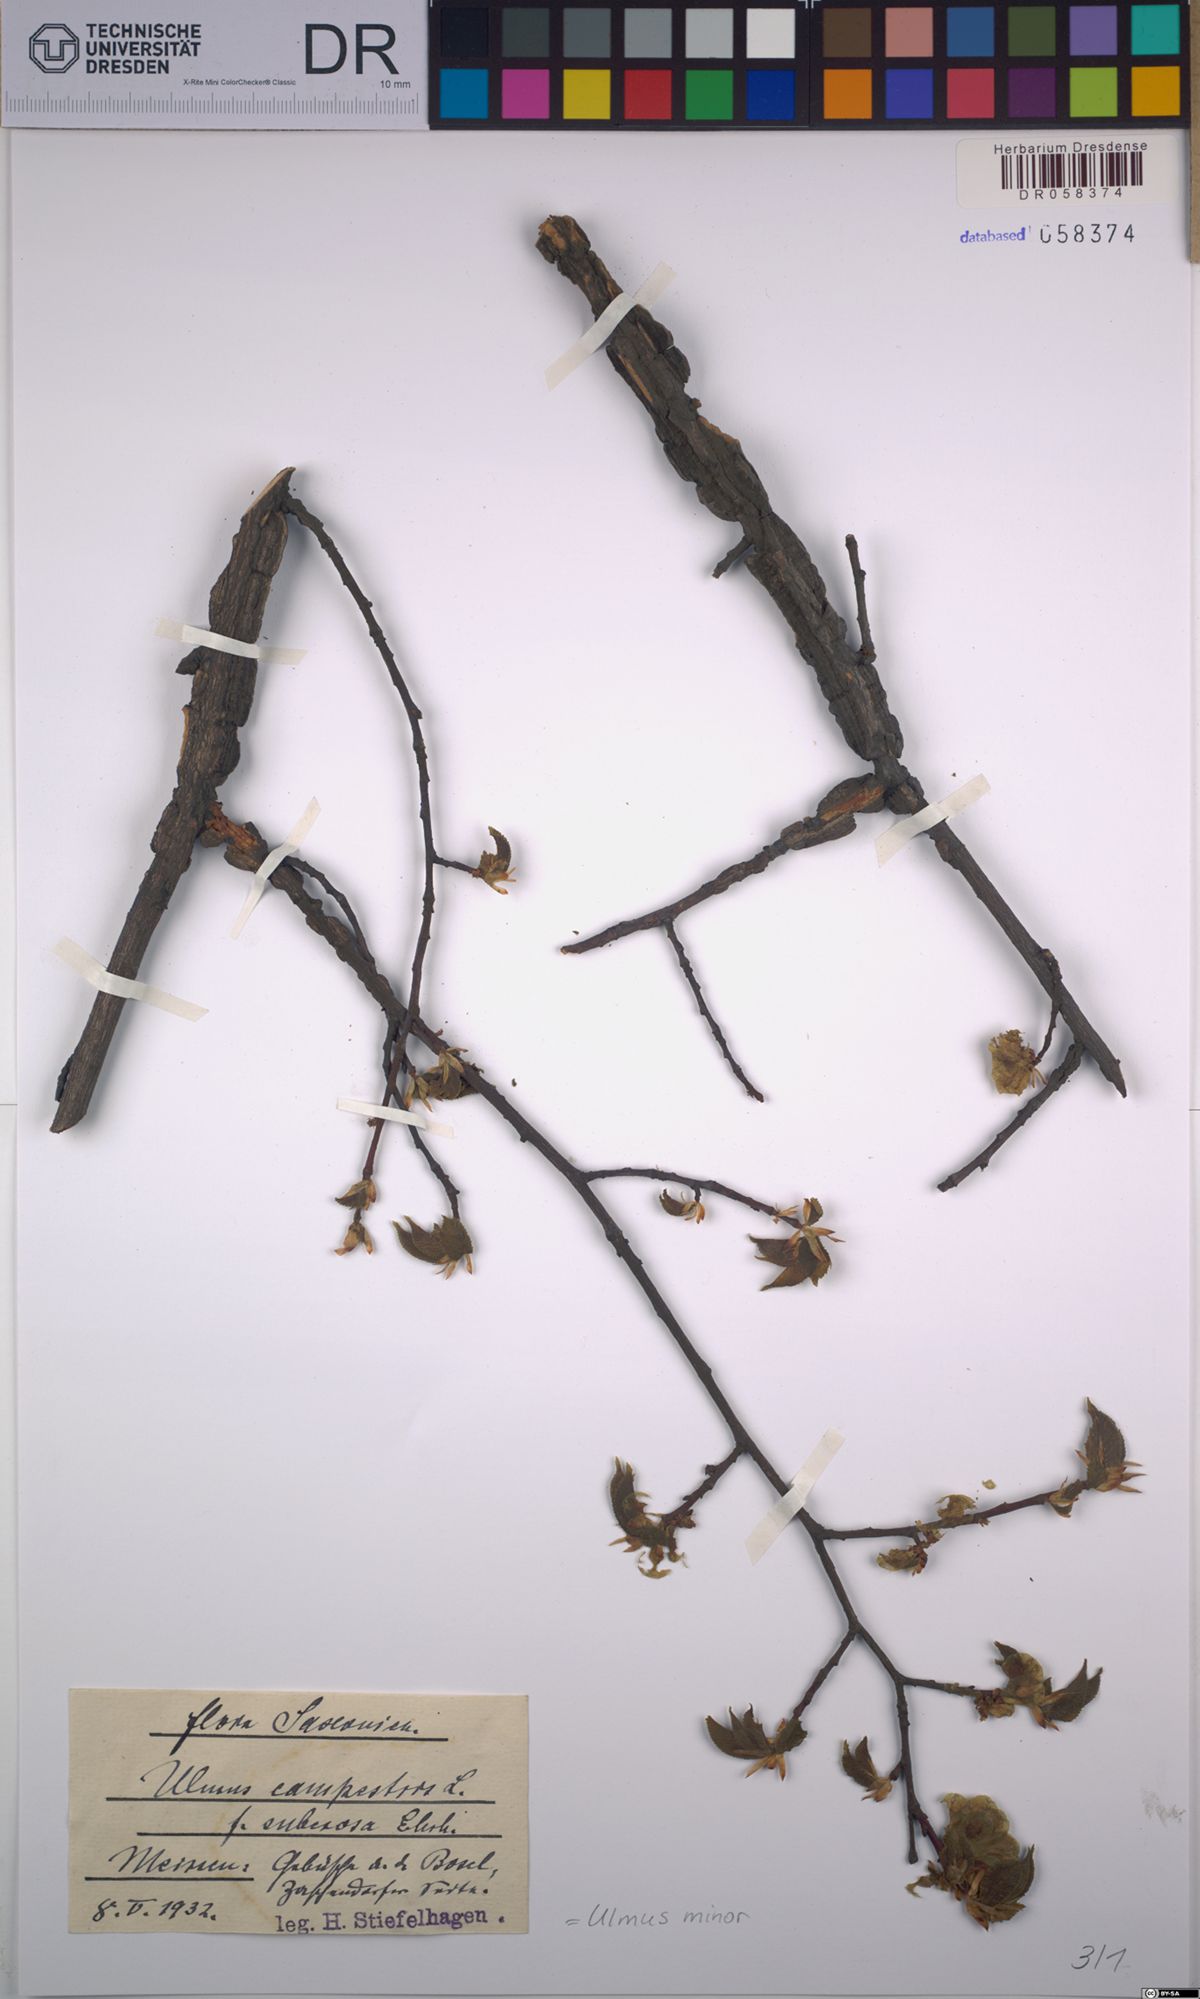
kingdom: Plantae
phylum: Tracheophyta
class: Magnoliopsida
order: Rosales
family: Ulmaceae
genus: Ulmus
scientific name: Ulmus minor
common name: Small-leaved elm
